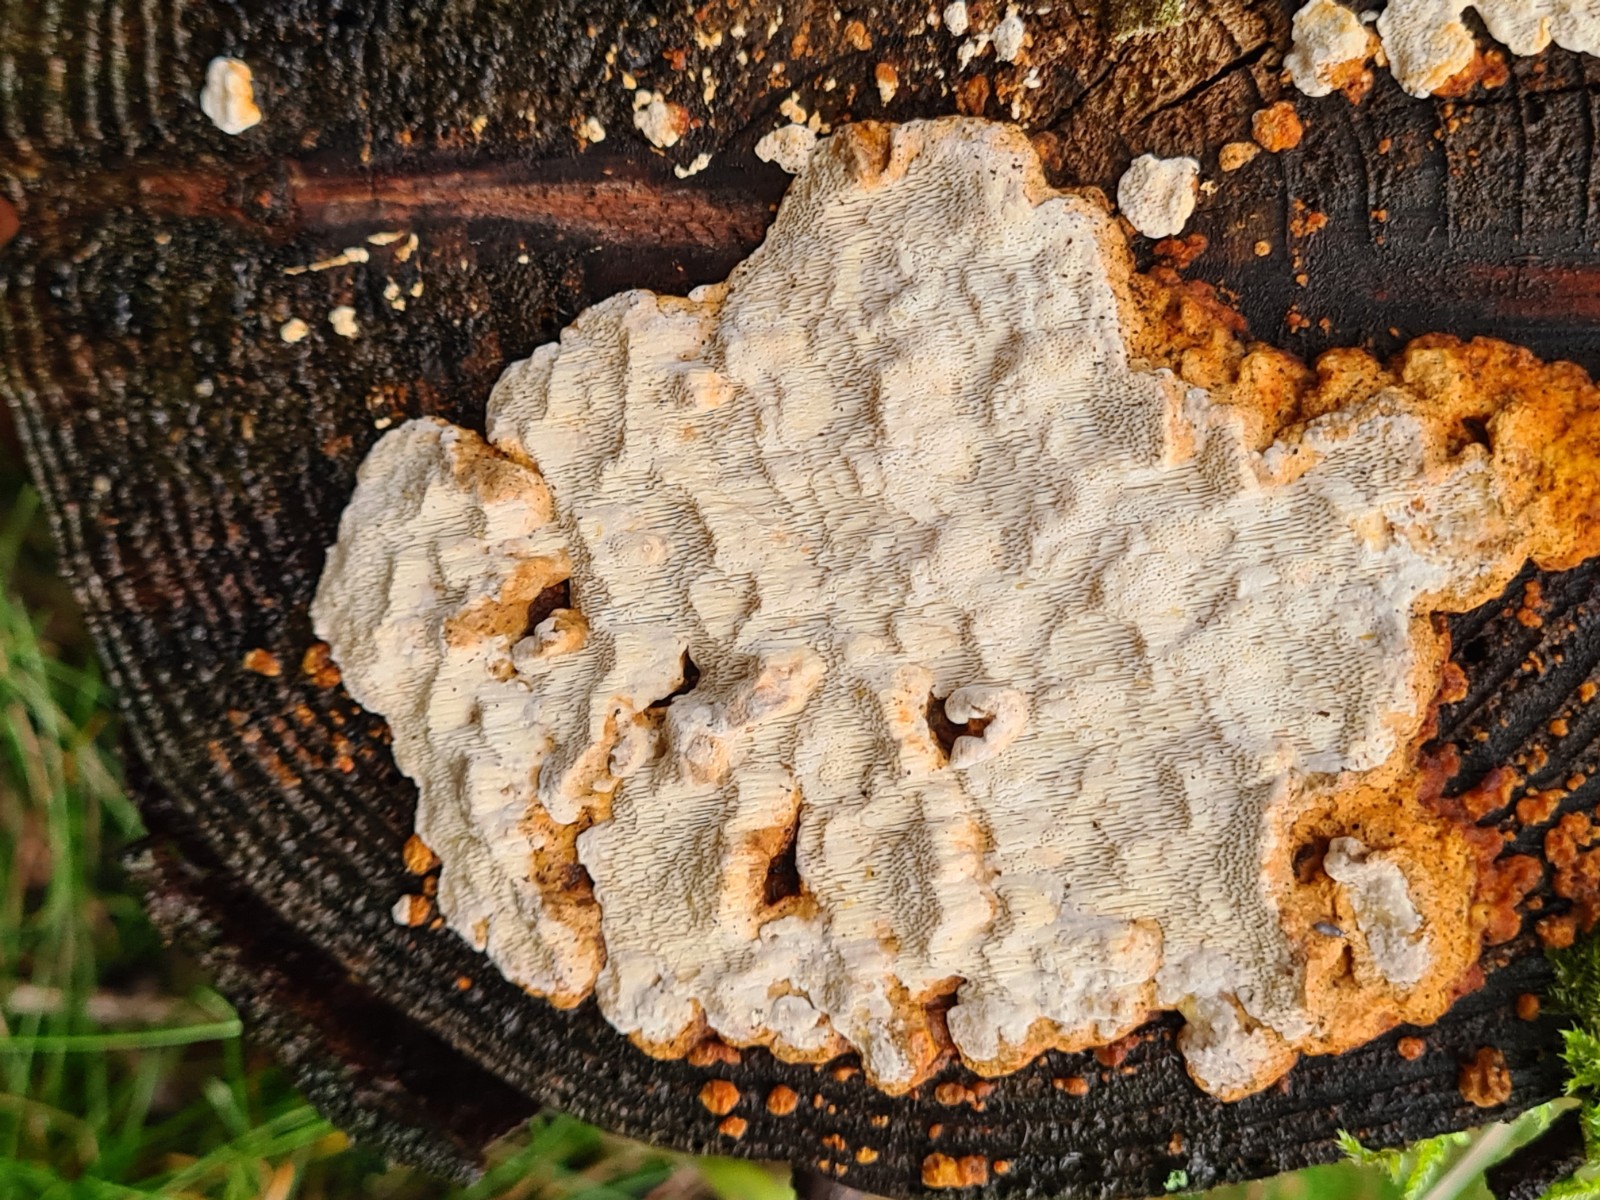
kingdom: Fungi
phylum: Basidiomycota
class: Agaricomycetes
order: Polyporales
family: Fomitopsidaceae
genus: Neoantrodia
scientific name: Neoantrodia serialis
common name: række-sejporesvamp
